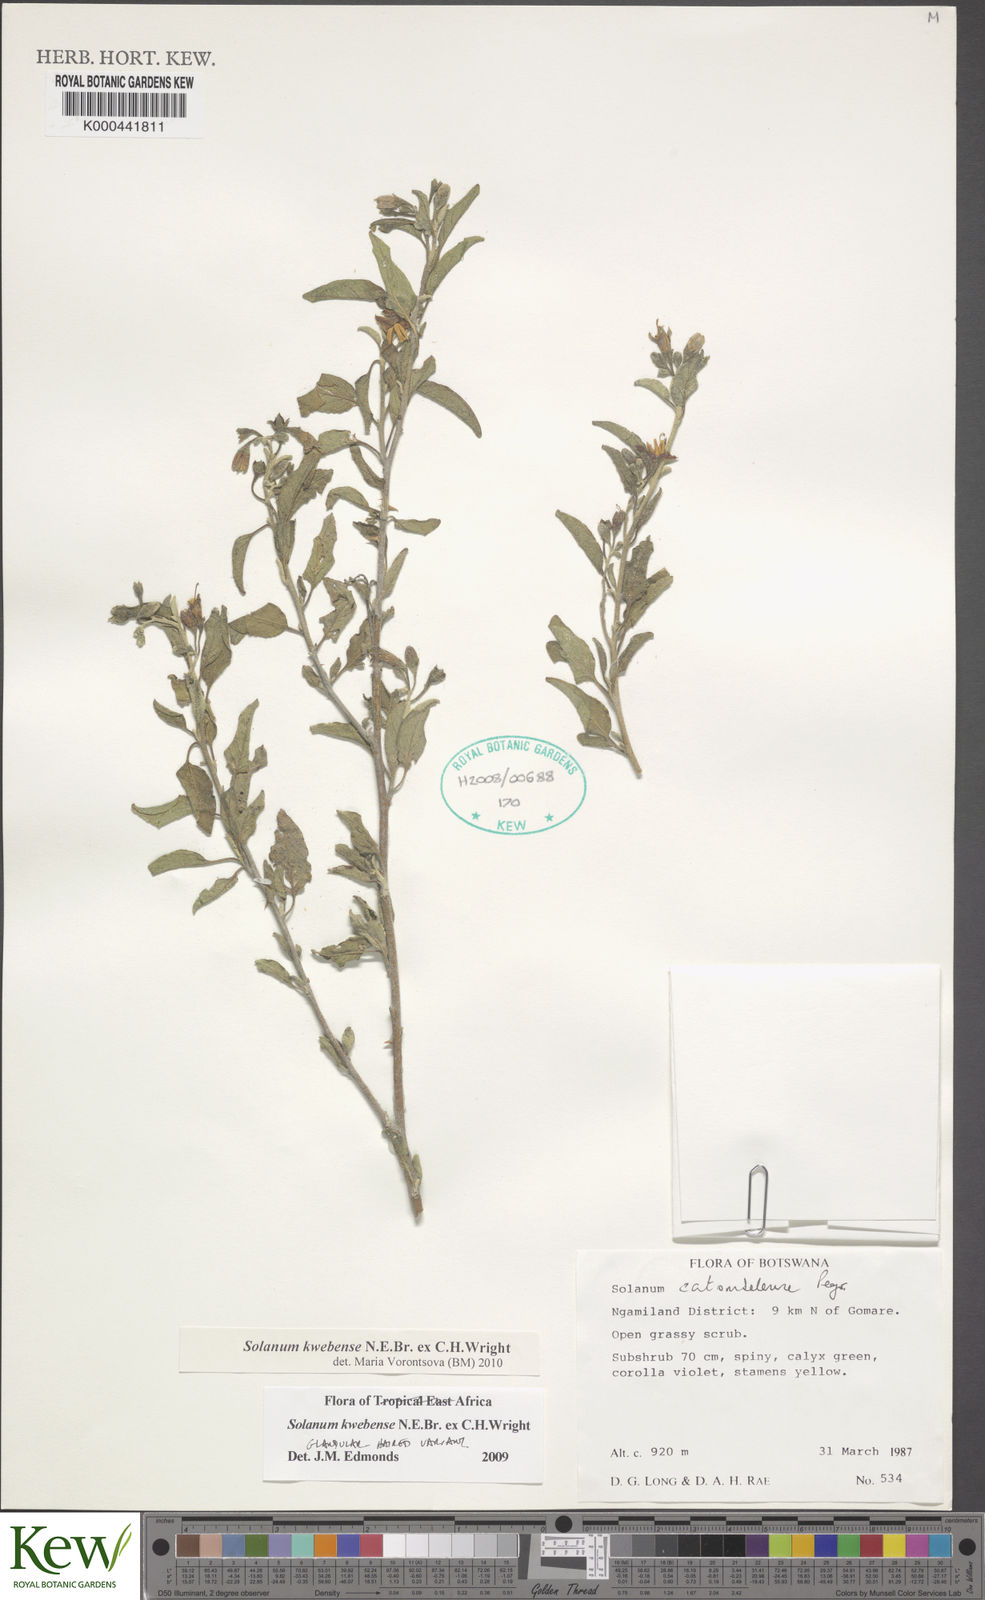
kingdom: Plantae
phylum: Tracheophyta
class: Magnoliopsida
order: Solanales
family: Solanaceae
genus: Solanum
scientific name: Solanum tettense
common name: Mozambique bitter apple
